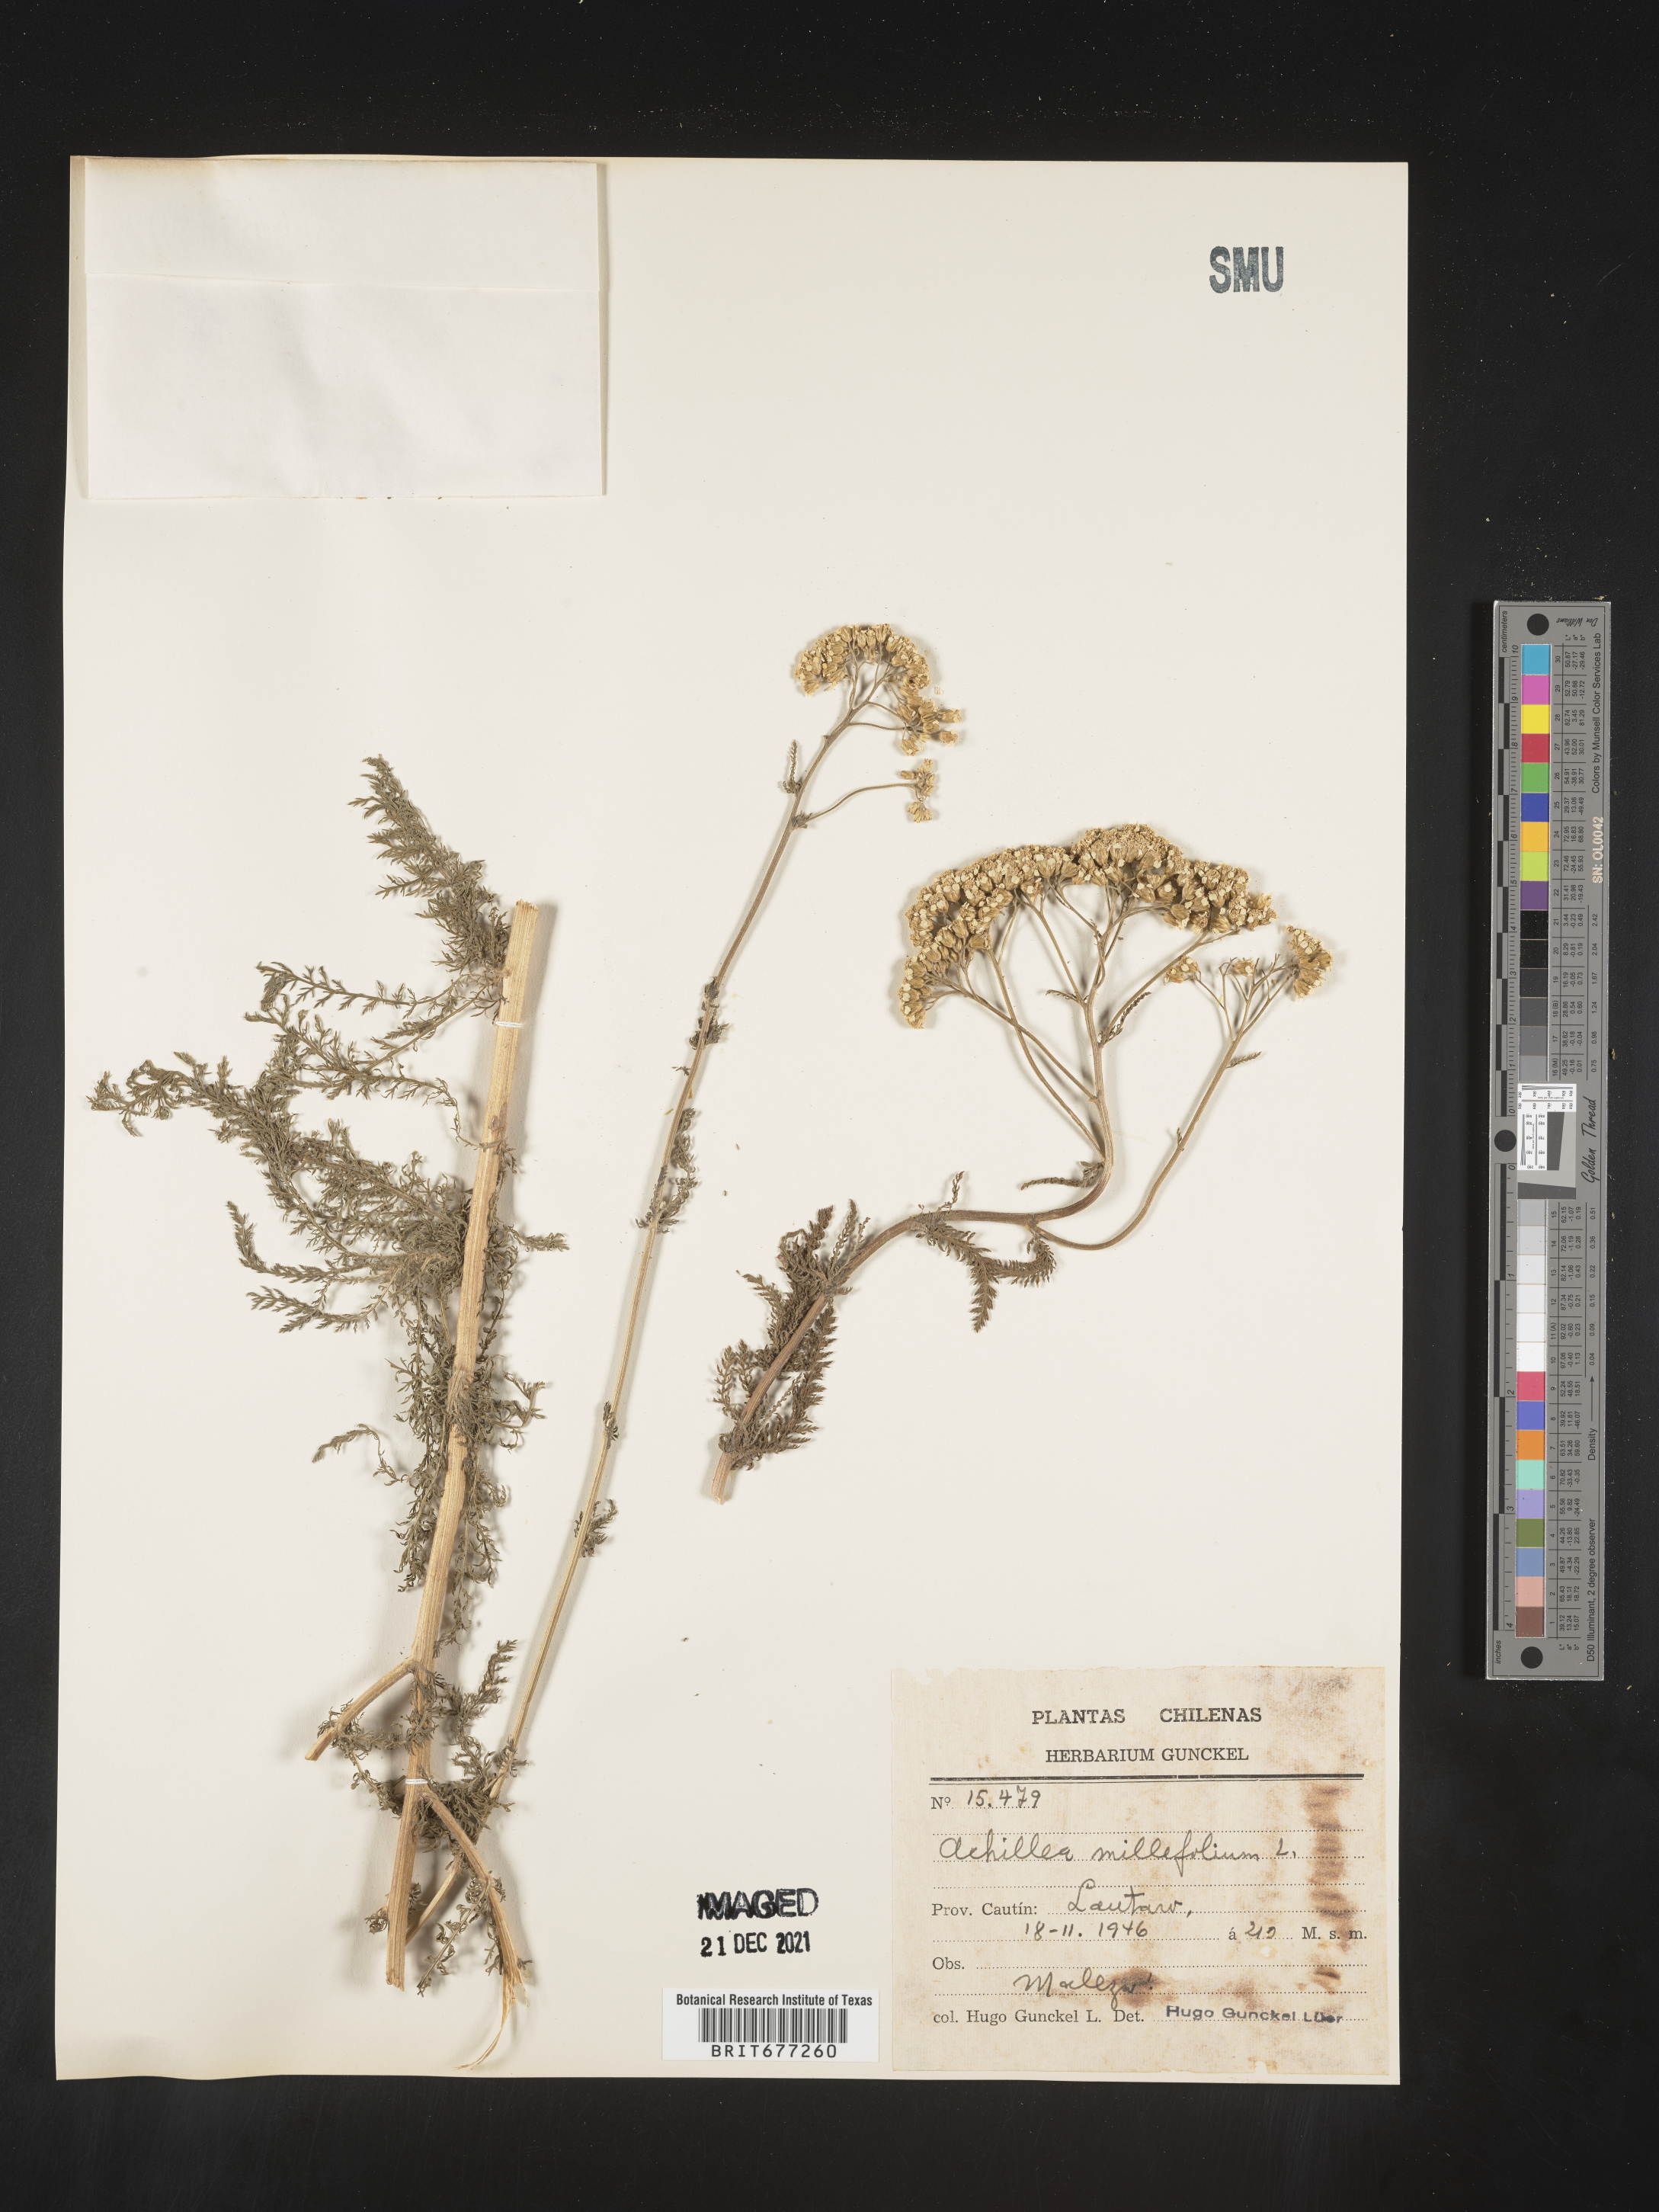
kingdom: Plantae
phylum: Tracheophyta
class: Magnoliopsida
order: Asterales
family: Asteraceae
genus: Achillea
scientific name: Achillea
